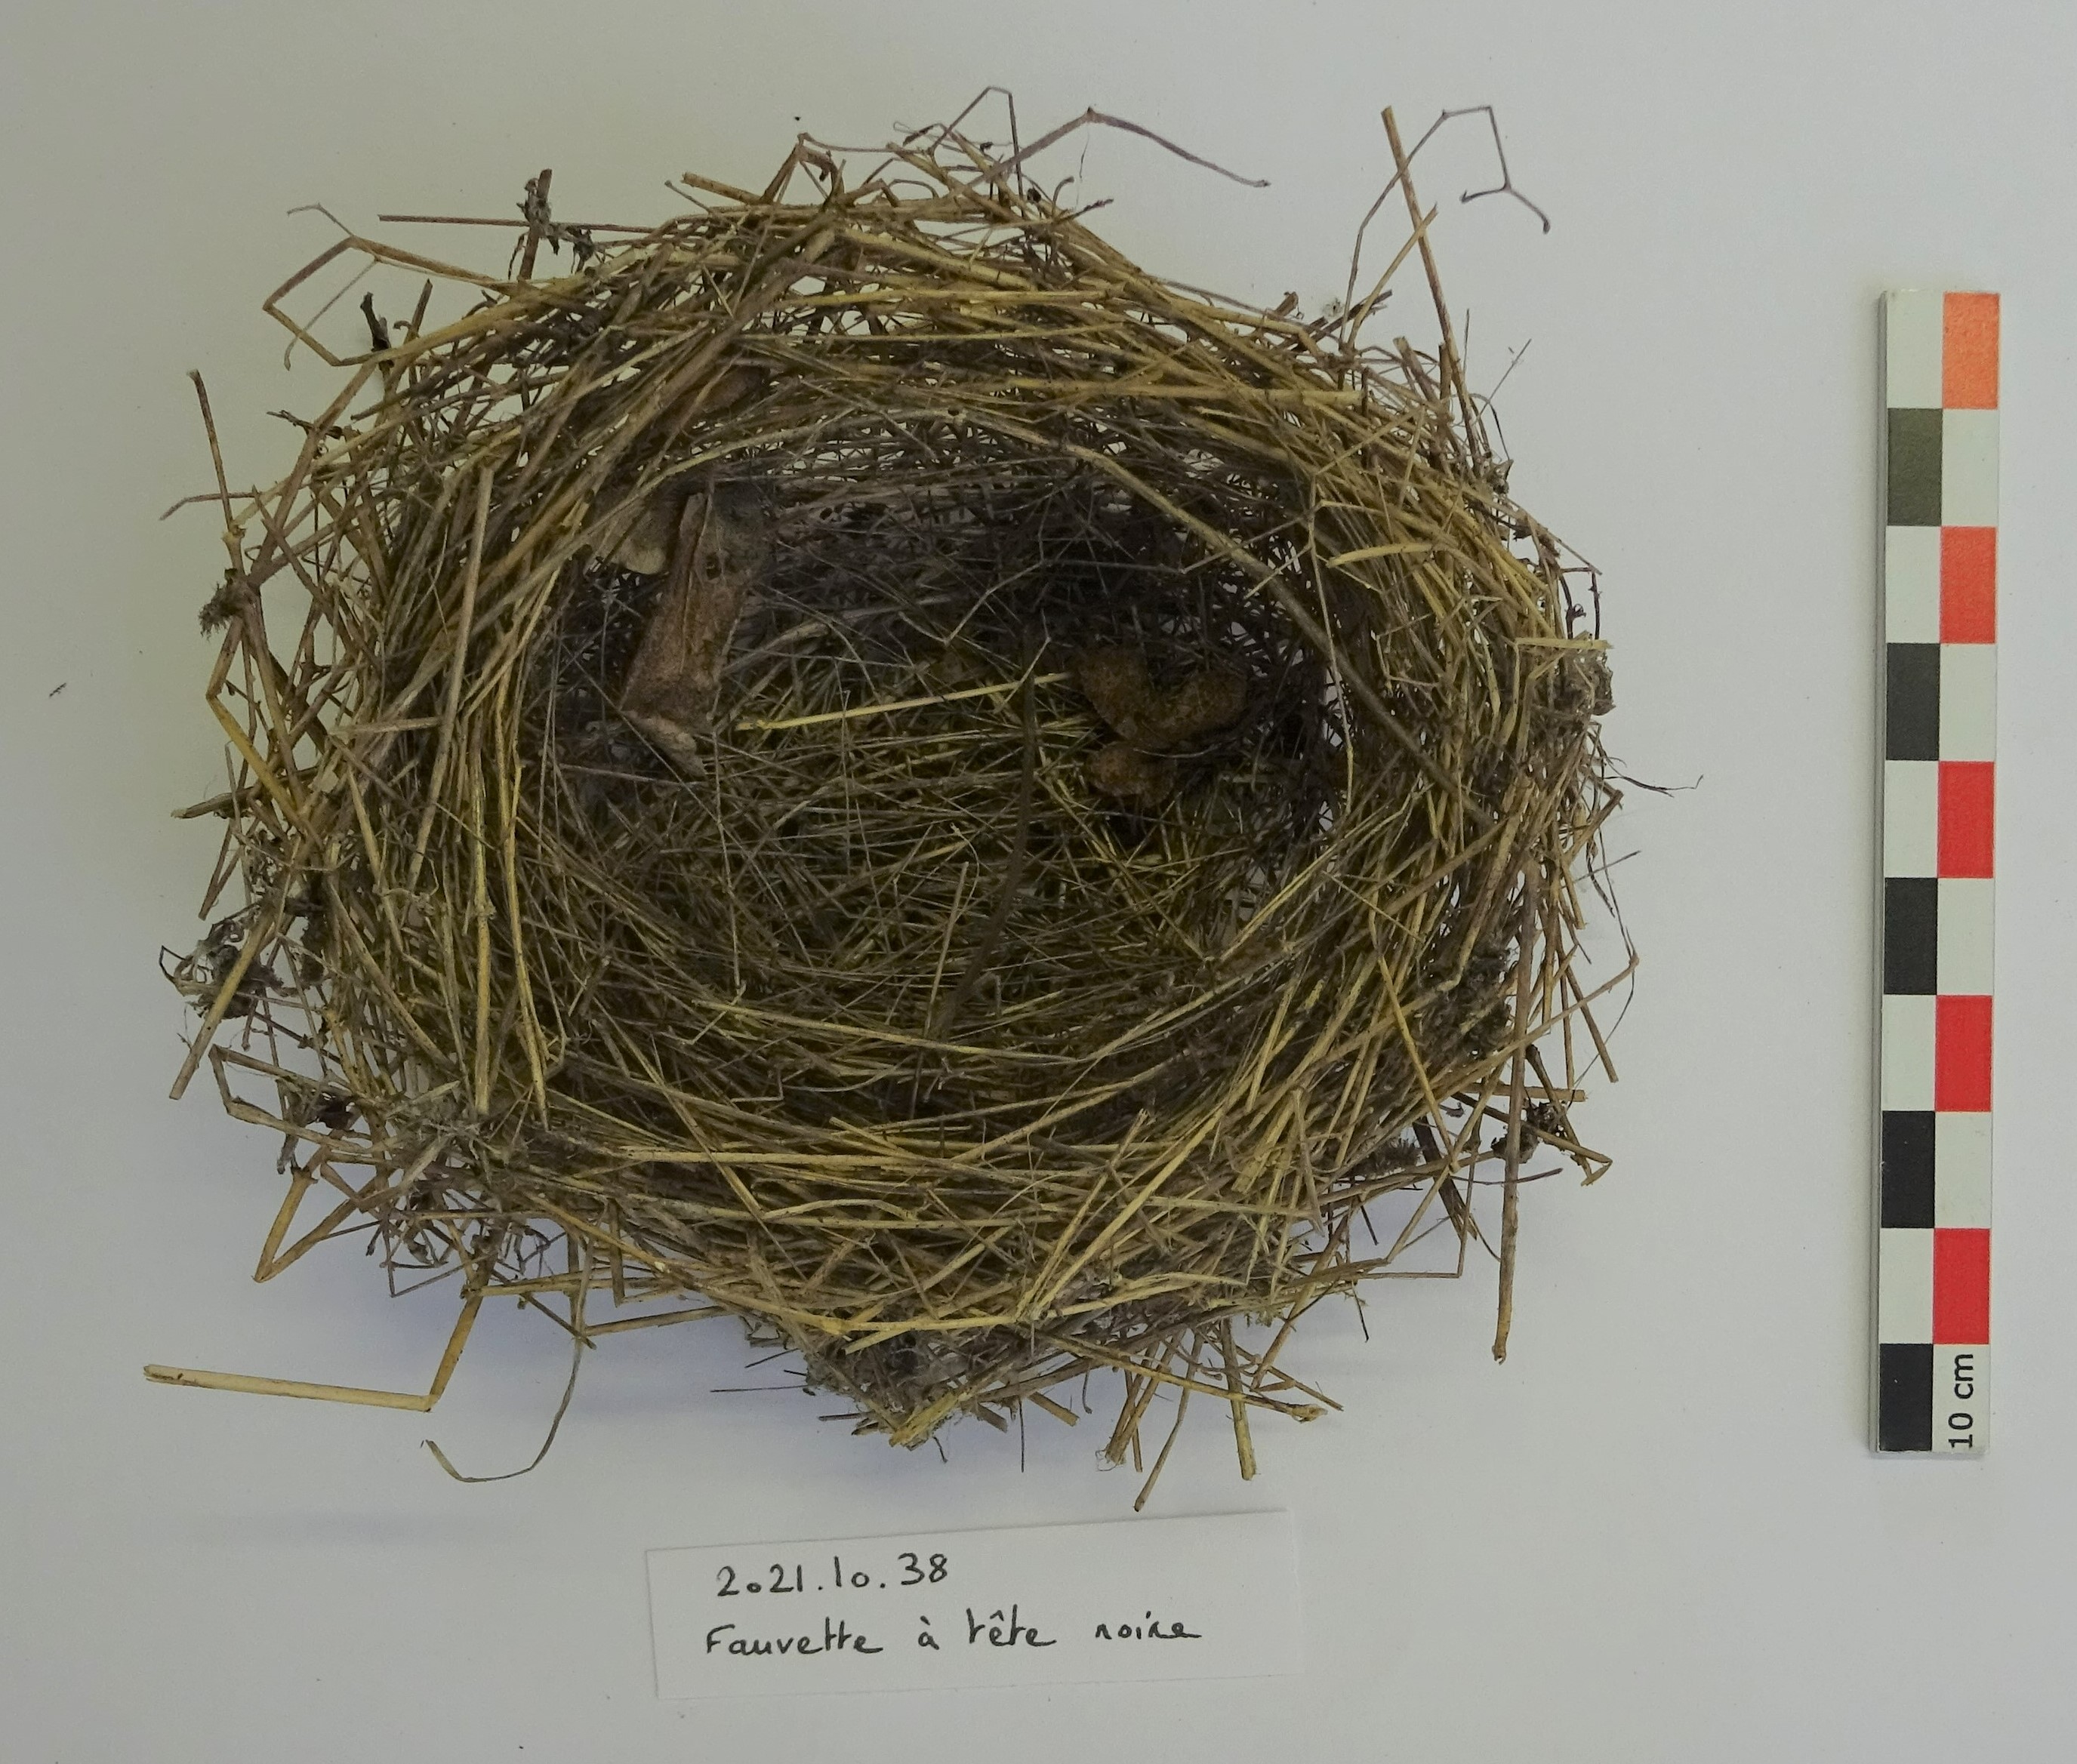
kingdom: Animalia
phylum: Chordata
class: Aves
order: Passeriformes
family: Sylviidae
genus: Sylvia
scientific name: Sylvia atricapilla
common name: Eurasian blackcap
